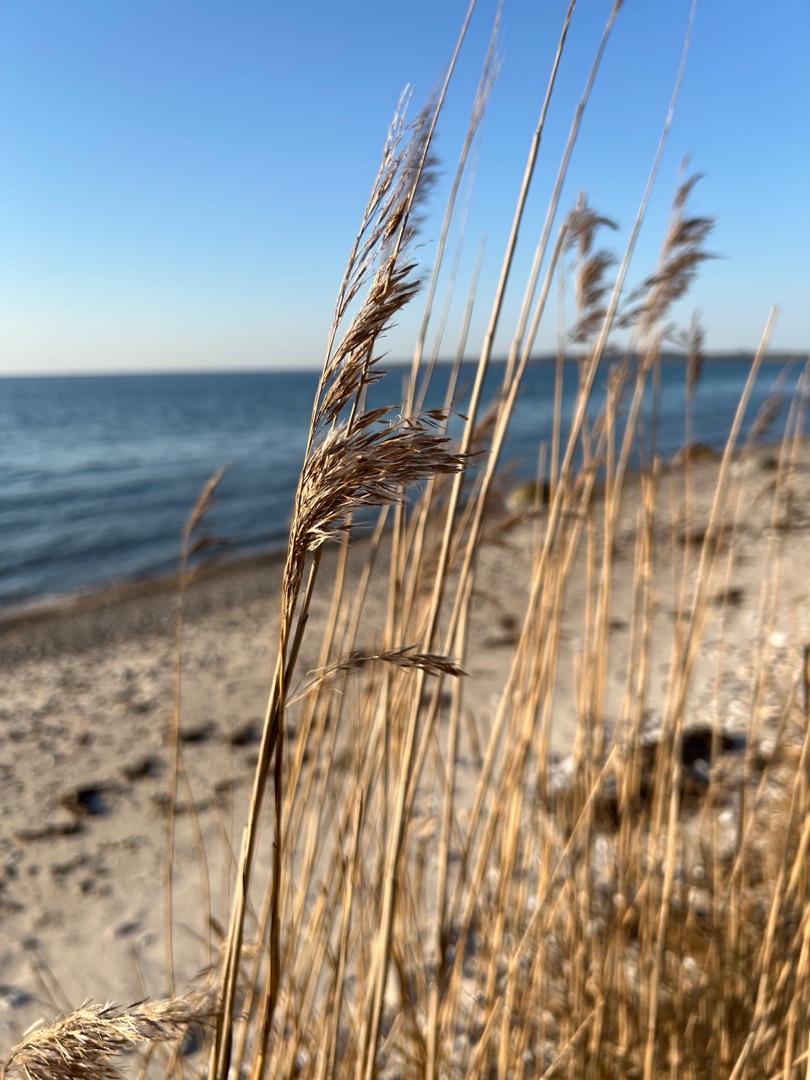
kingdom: Plantae
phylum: Tracheophyta
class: Liliopsida
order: Poales
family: Poaceae
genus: Phragmites
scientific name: Phragmites australis
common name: Tagrør
